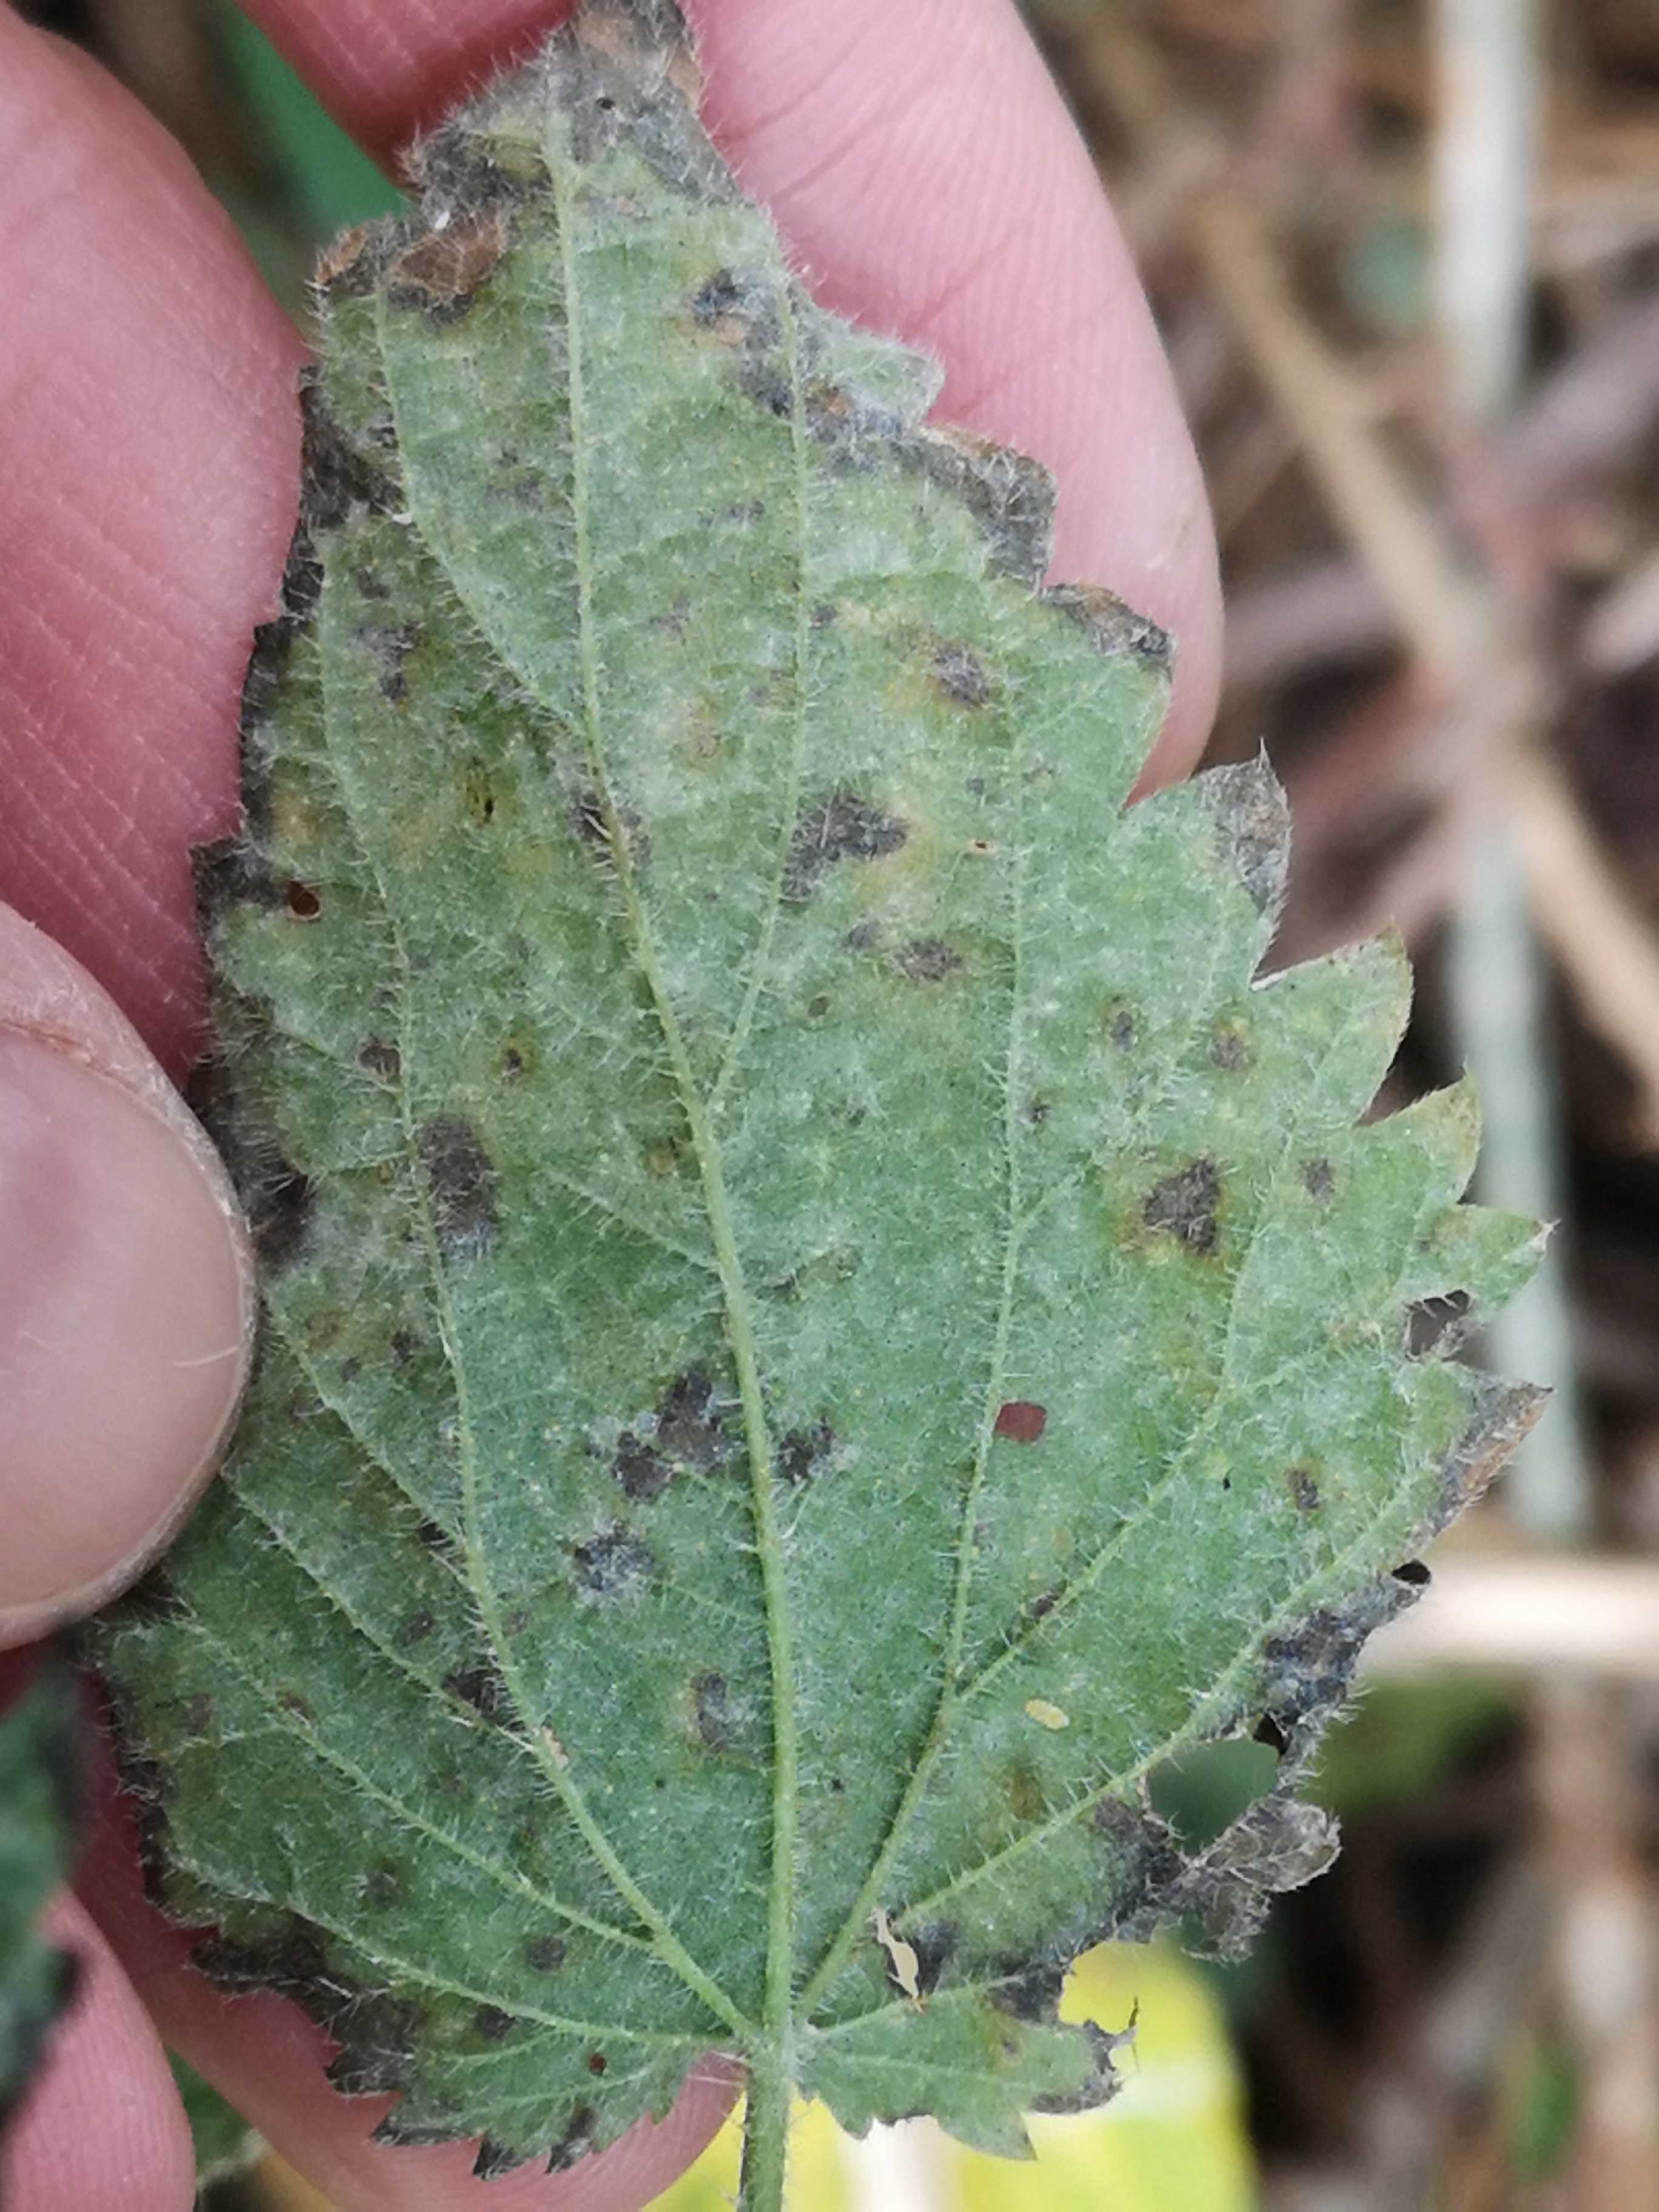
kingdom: Fungi
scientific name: Fungi
